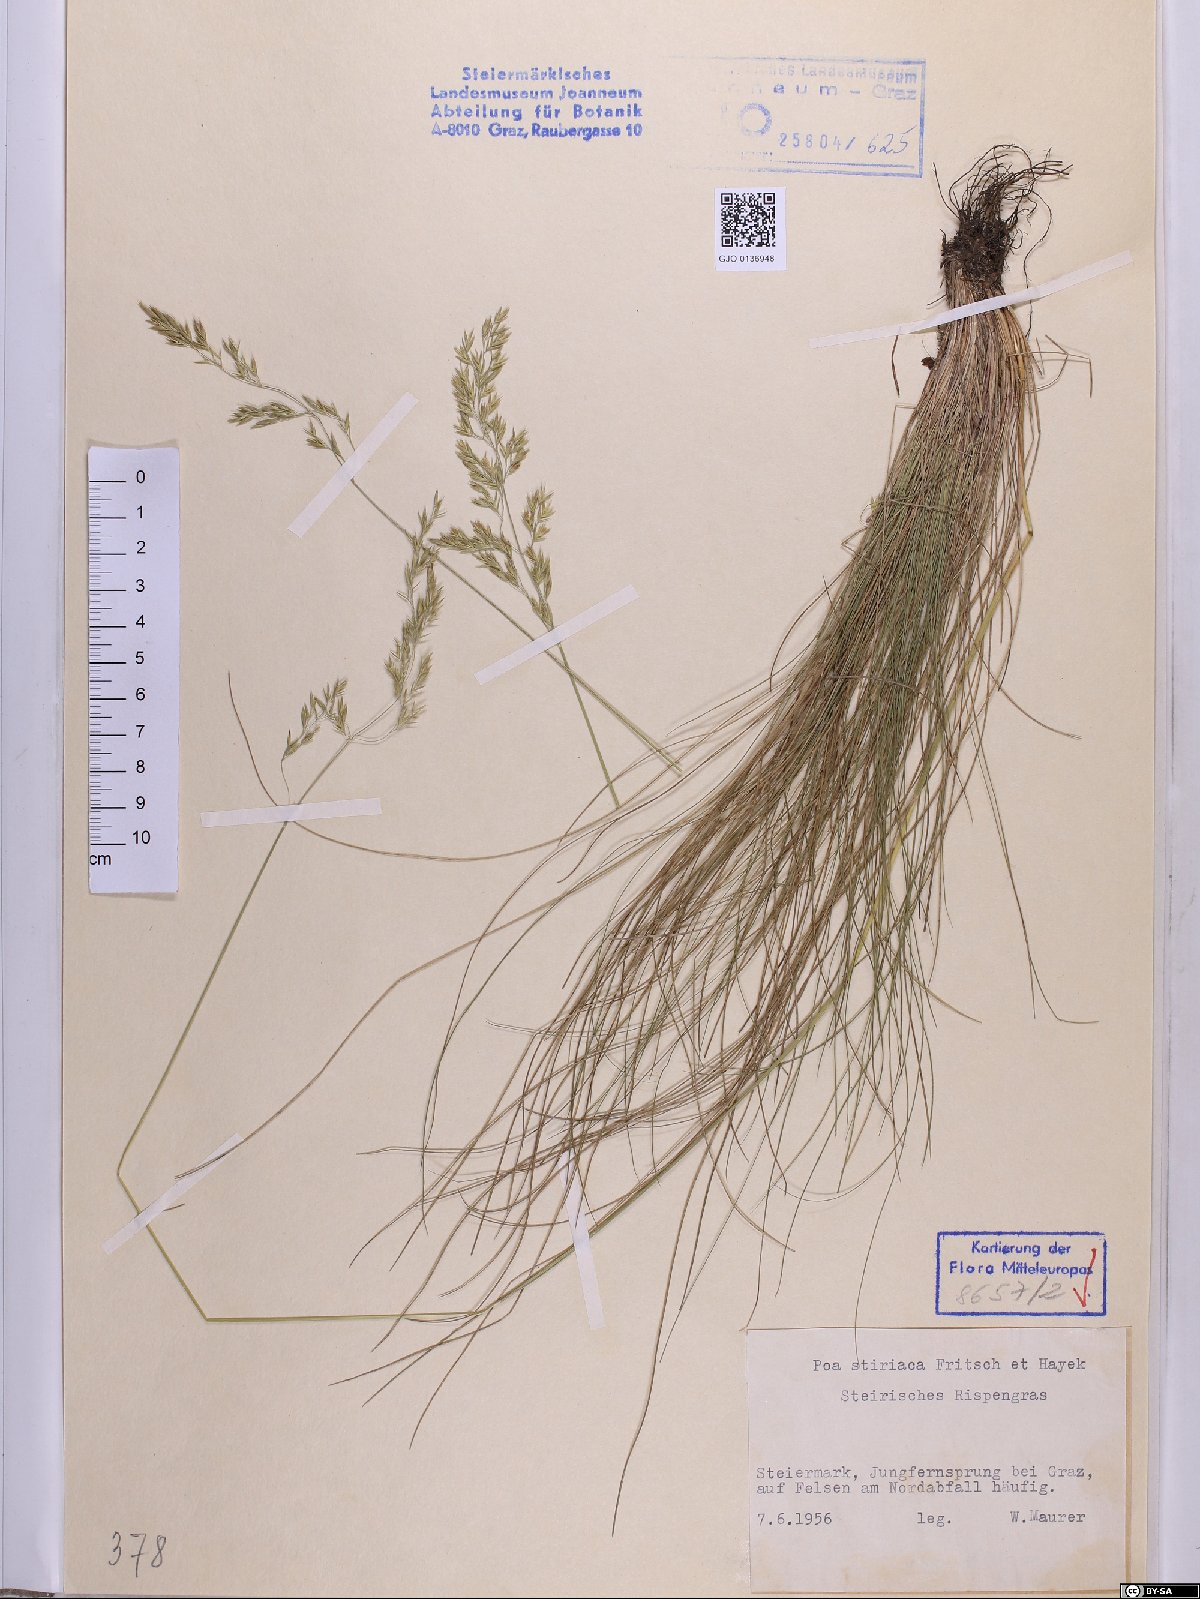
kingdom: Plantae
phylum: Tracheophyta
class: Liliopsida
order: Poales
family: Poaceae
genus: Poa
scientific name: Poa stiriaca
